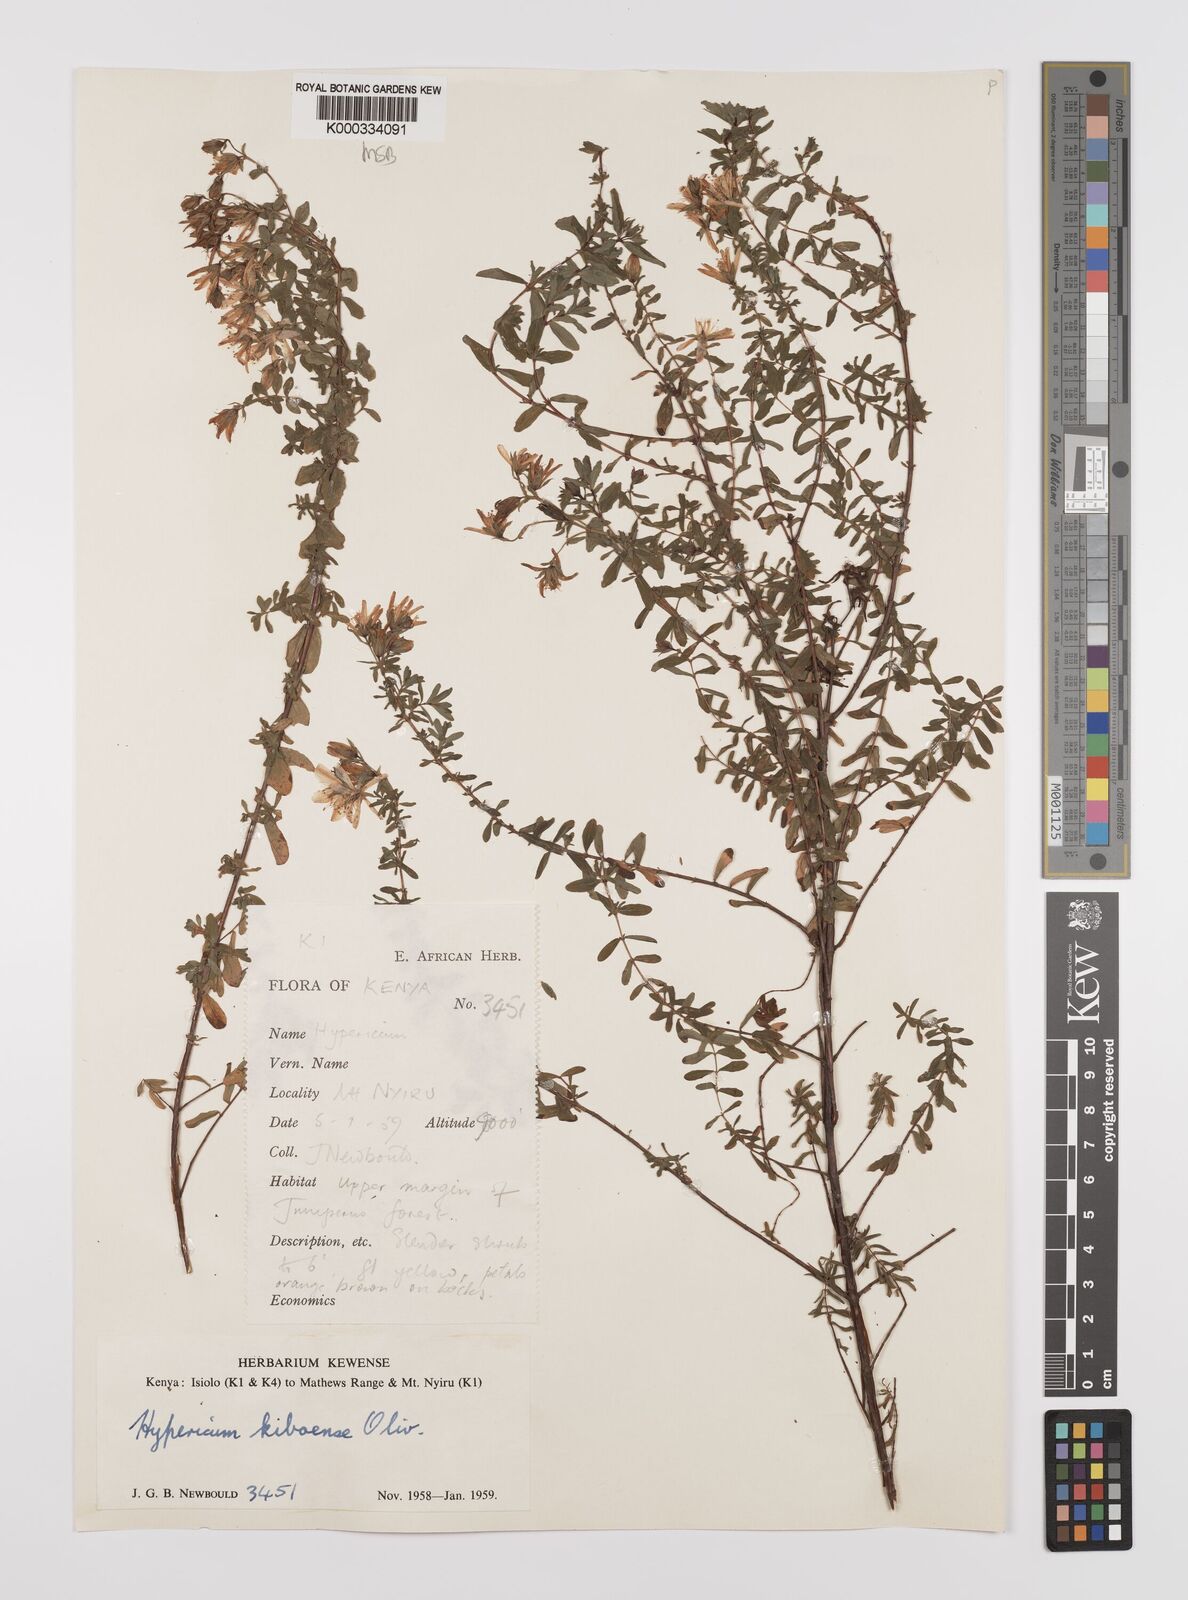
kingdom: Plantae
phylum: Tracheophyta
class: Magnoliopsida
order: Malpighiales
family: Hypericaceae
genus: Hypericum
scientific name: Hypericum kiboense
